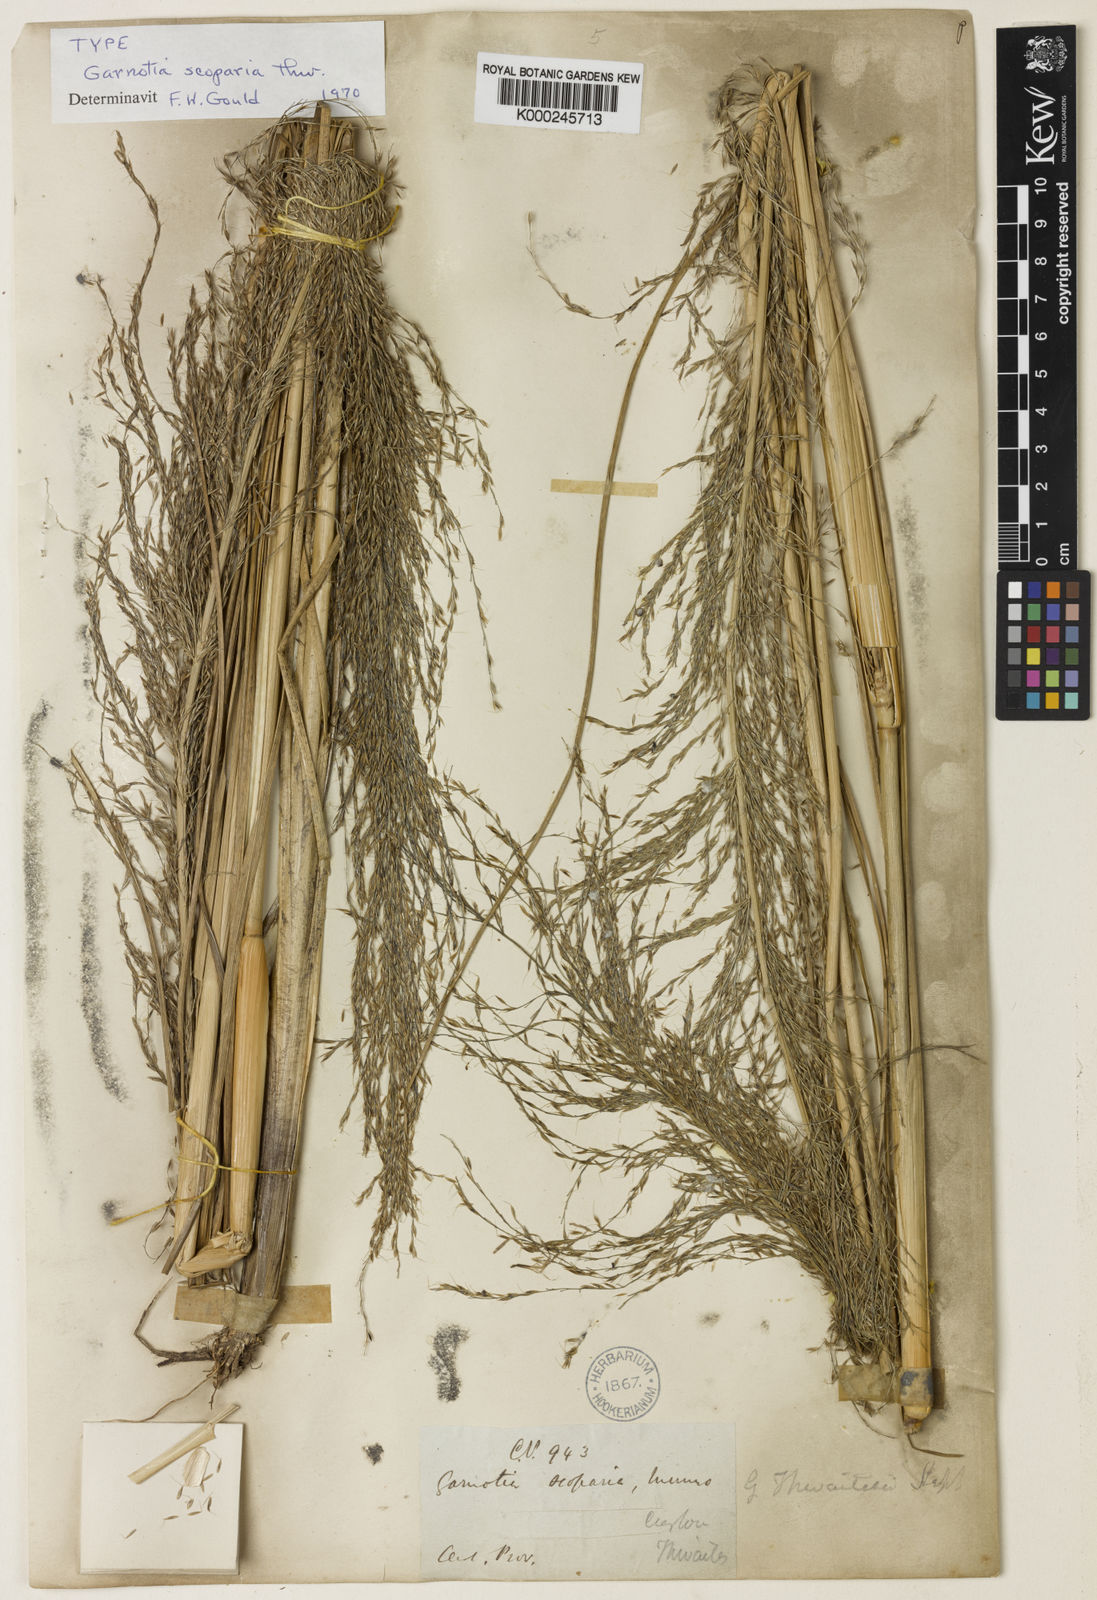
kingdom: Plantae
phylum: Tracheophyta
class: Liliopsida
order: Poales
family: Poaceae
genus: Garnotia
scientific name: Garnotia scoparia
